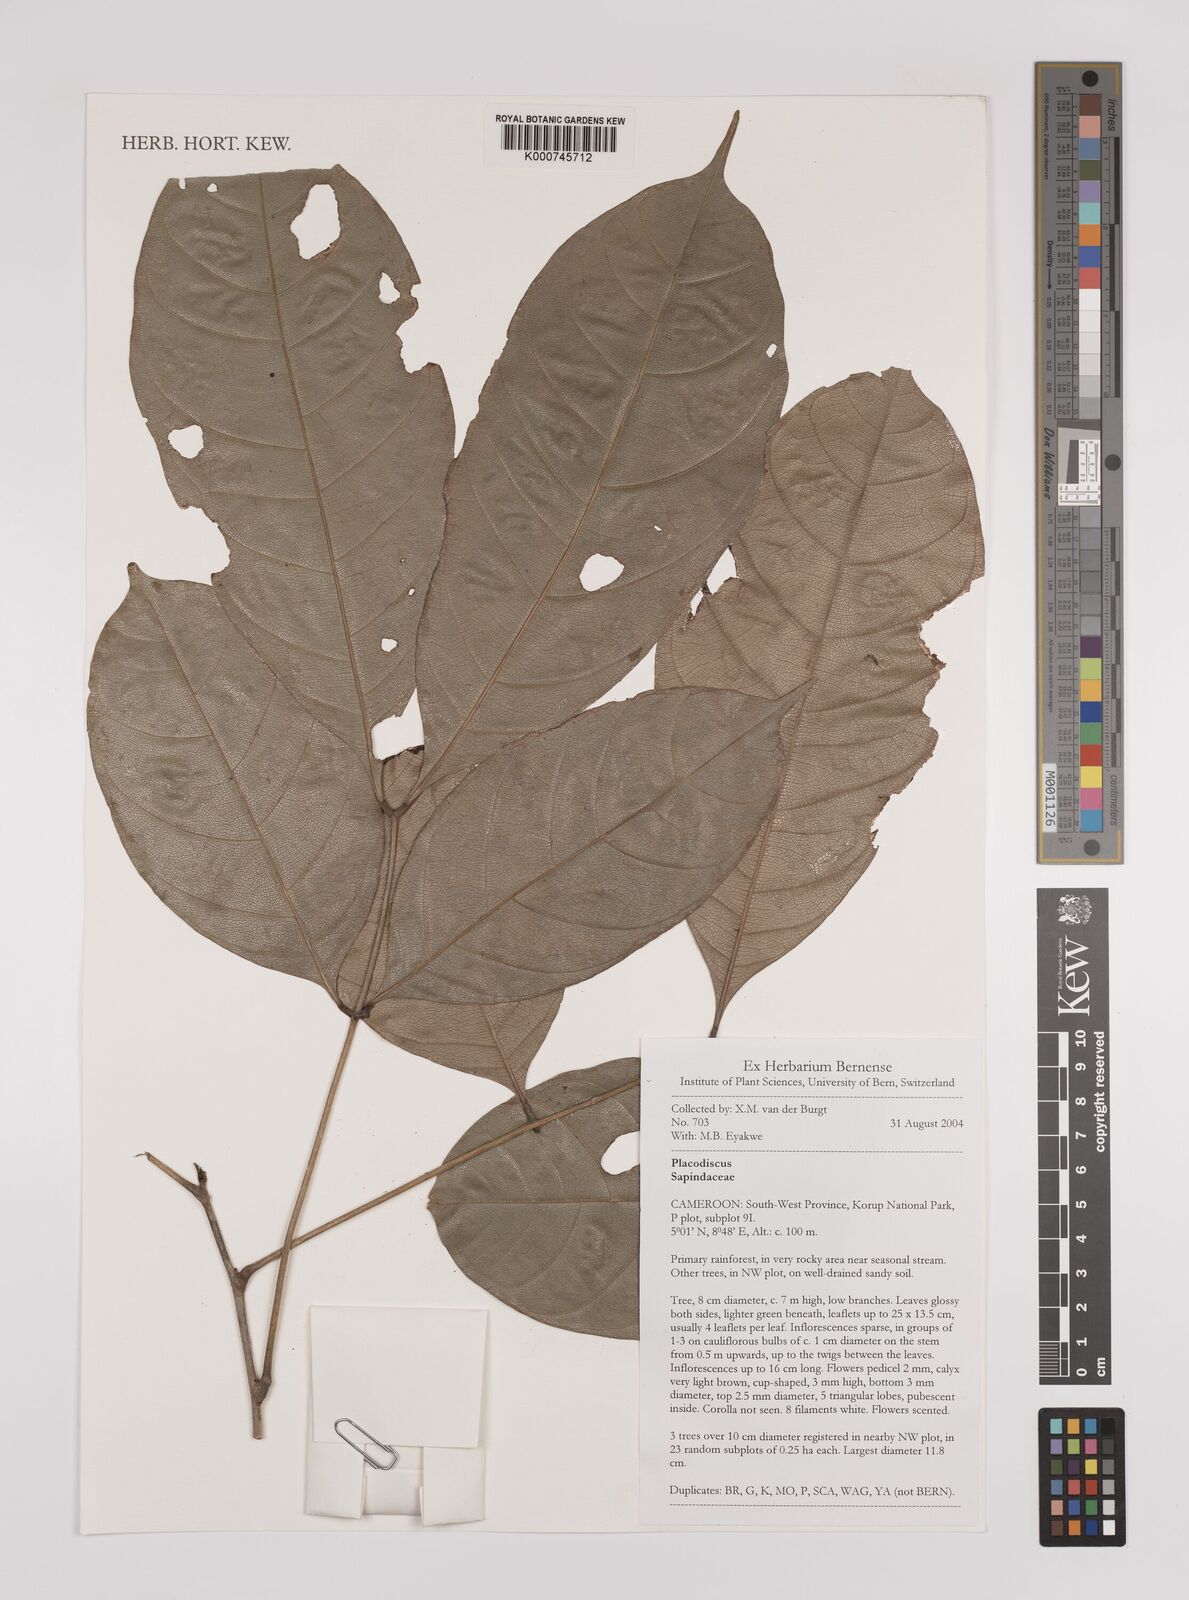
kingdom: Plantae
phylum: Tracheophyta
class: Magnoliopsida
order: Sapindales
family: Sapindaceae
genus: Placodiscus
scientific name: Placodiscus
